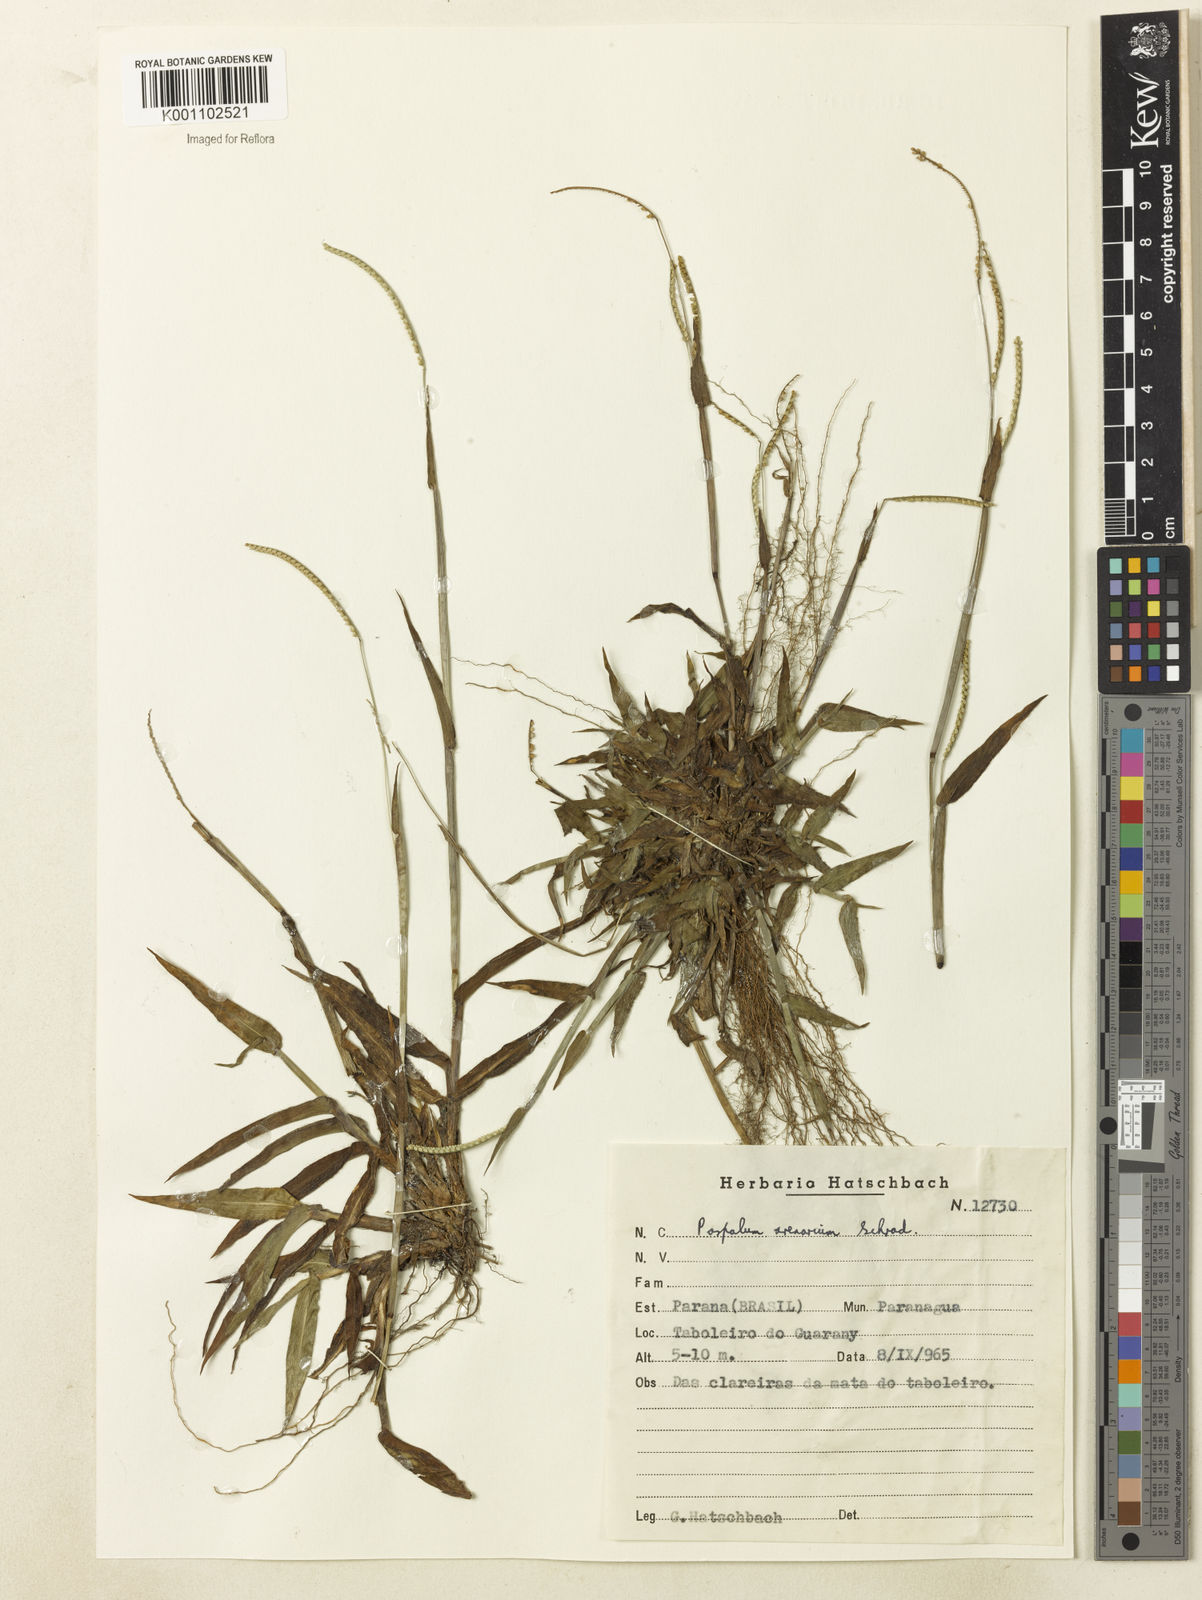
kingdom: Plantae
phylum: Tracheophyta
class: Liliopsida
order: Poales
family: Poaceae
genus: Paspalum
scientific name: Paspalum arenarium
